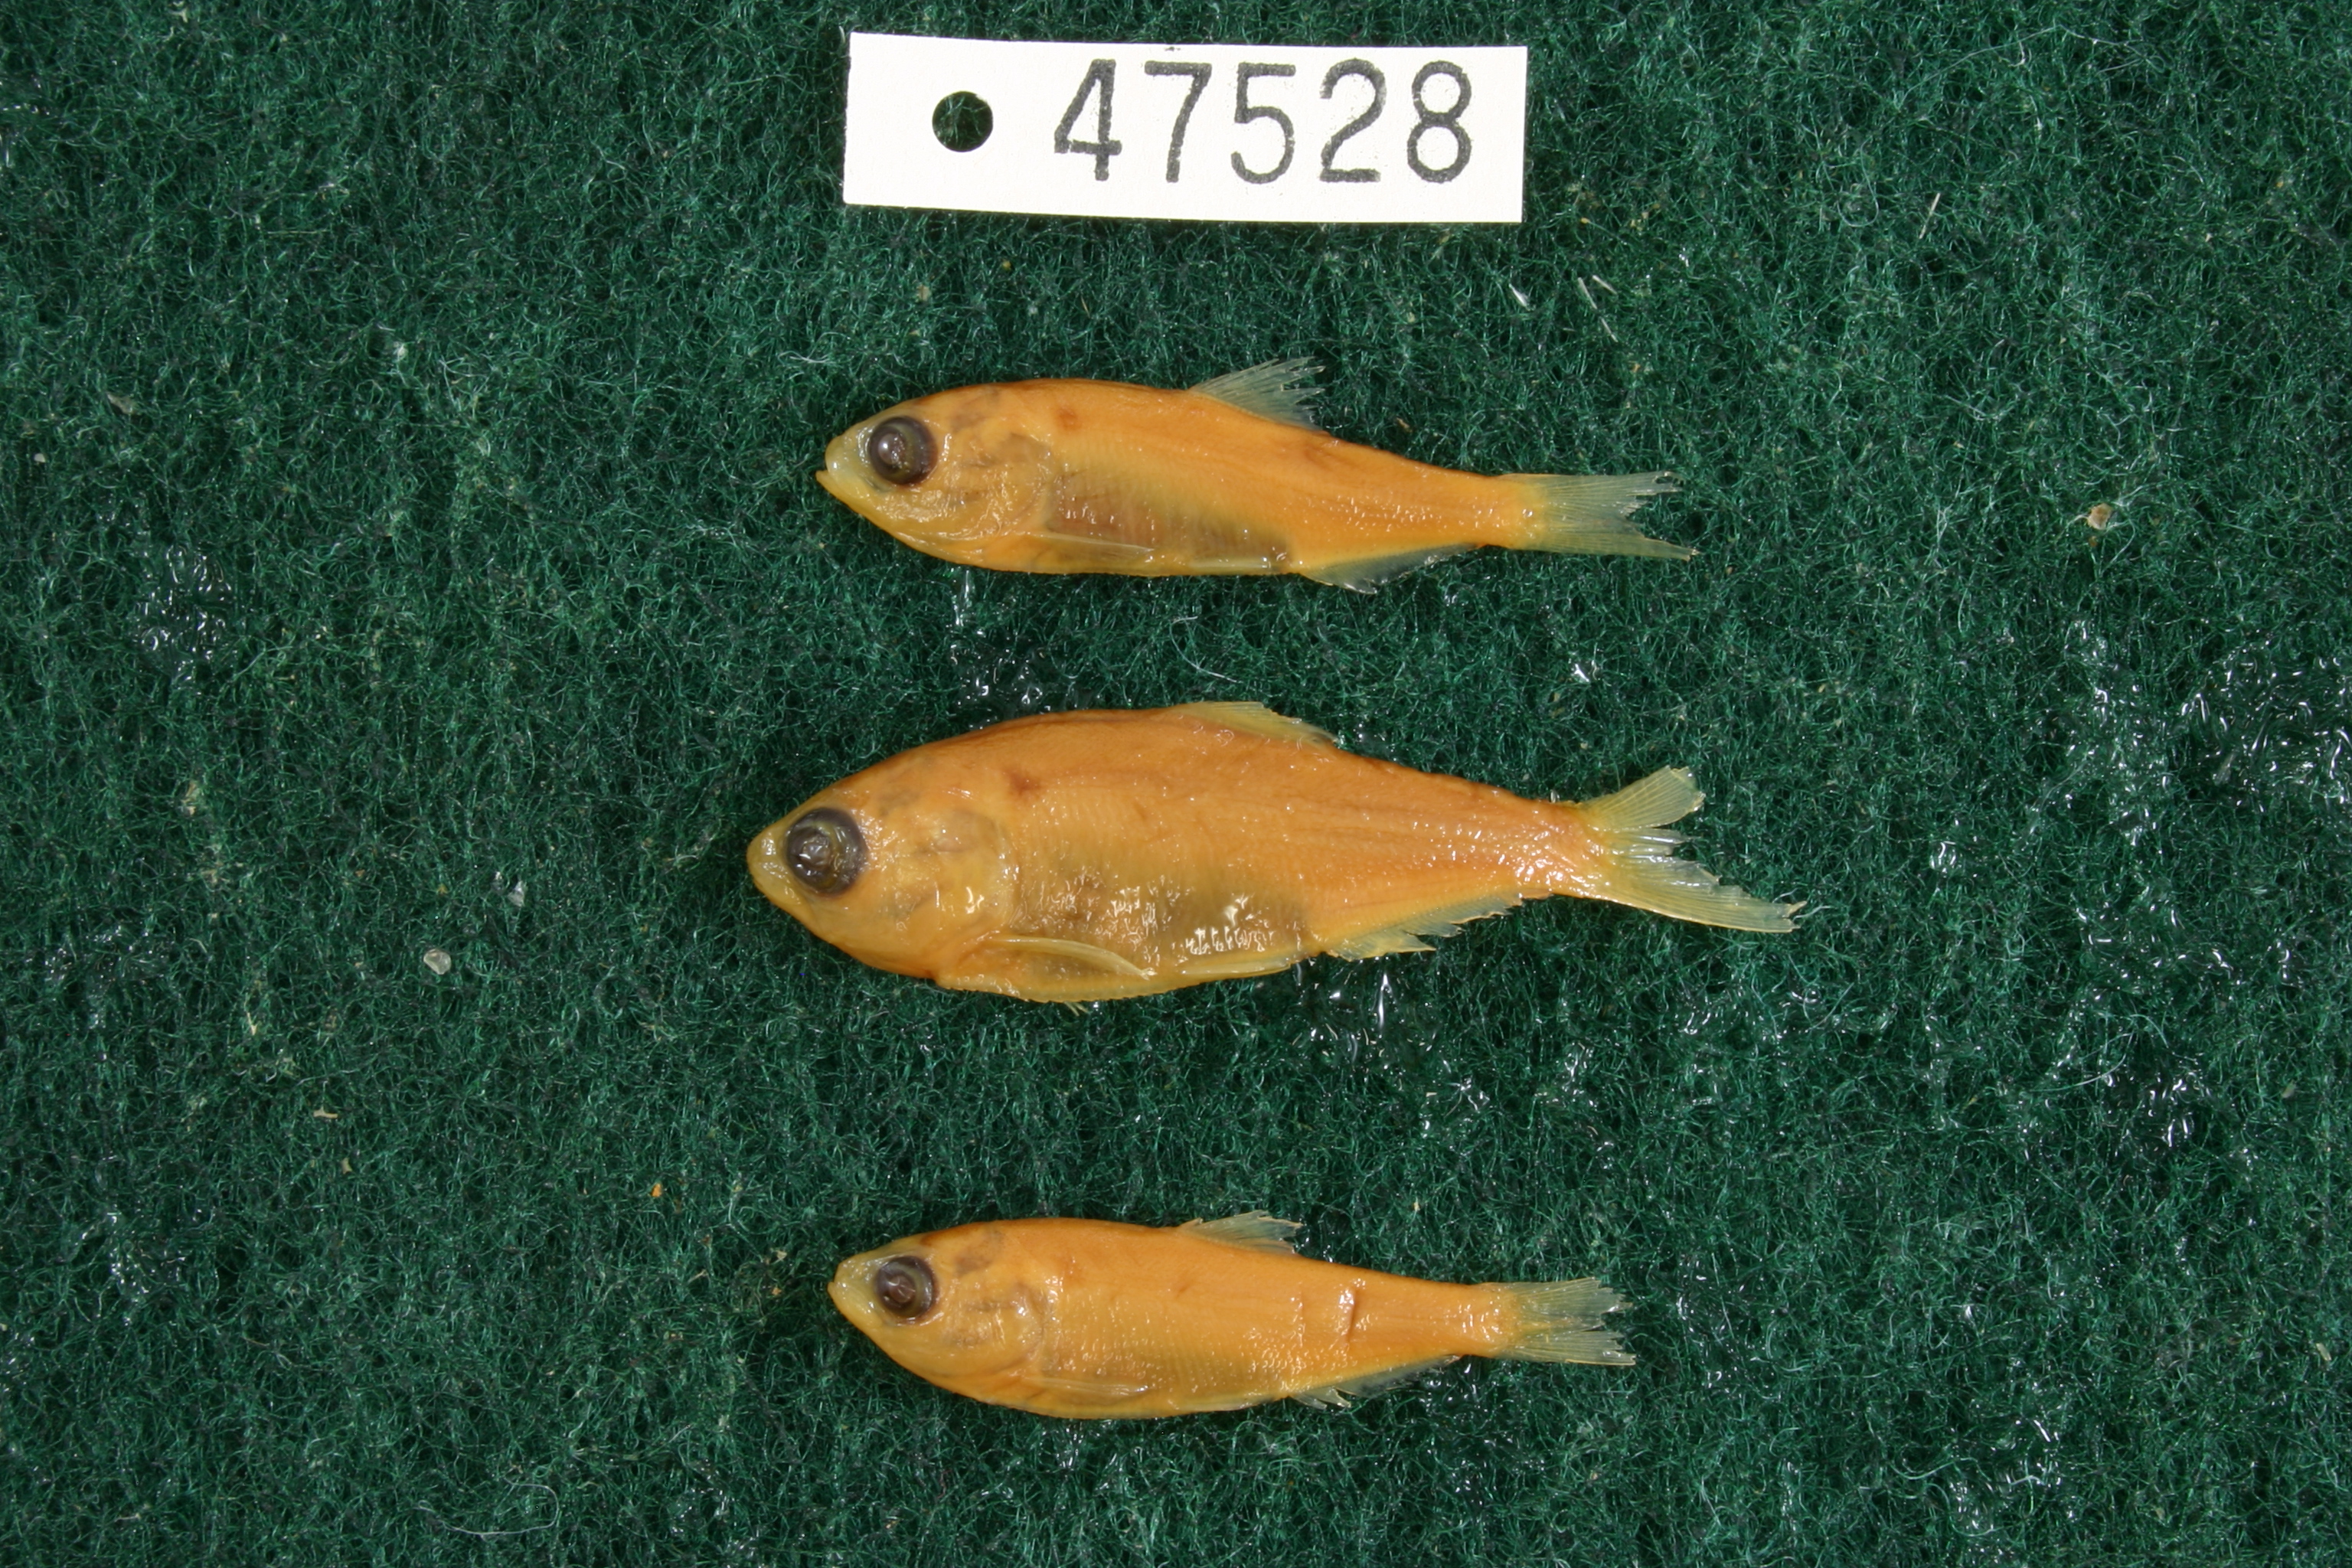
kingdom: Animalia
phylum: Chordata
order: Clupeiformes
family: Clupeidae
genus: Dorosoma
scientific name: Dorosoma cepedianum
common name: Gizzard shad
